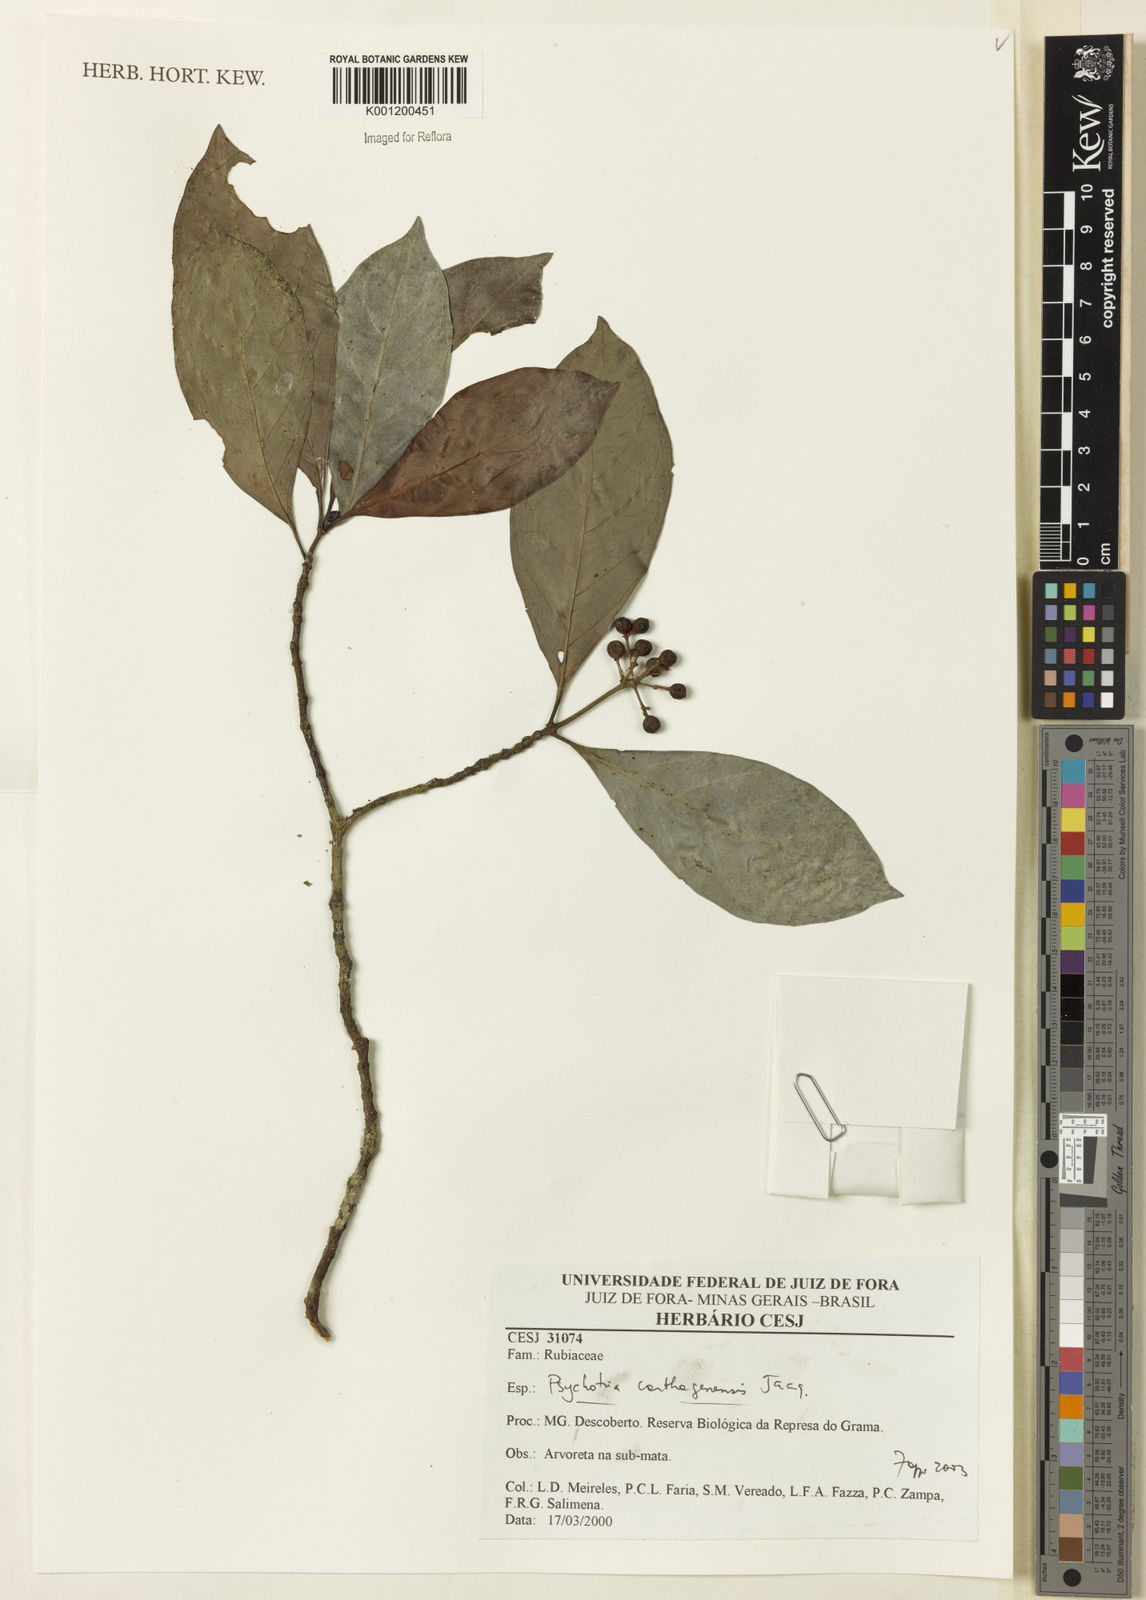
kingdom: Plantae
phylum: Tracheophyta
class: Magnoliopsida
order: Gentianales
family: Rubiaceae
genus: Psychotria
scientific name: Psychotria carthagenensis
